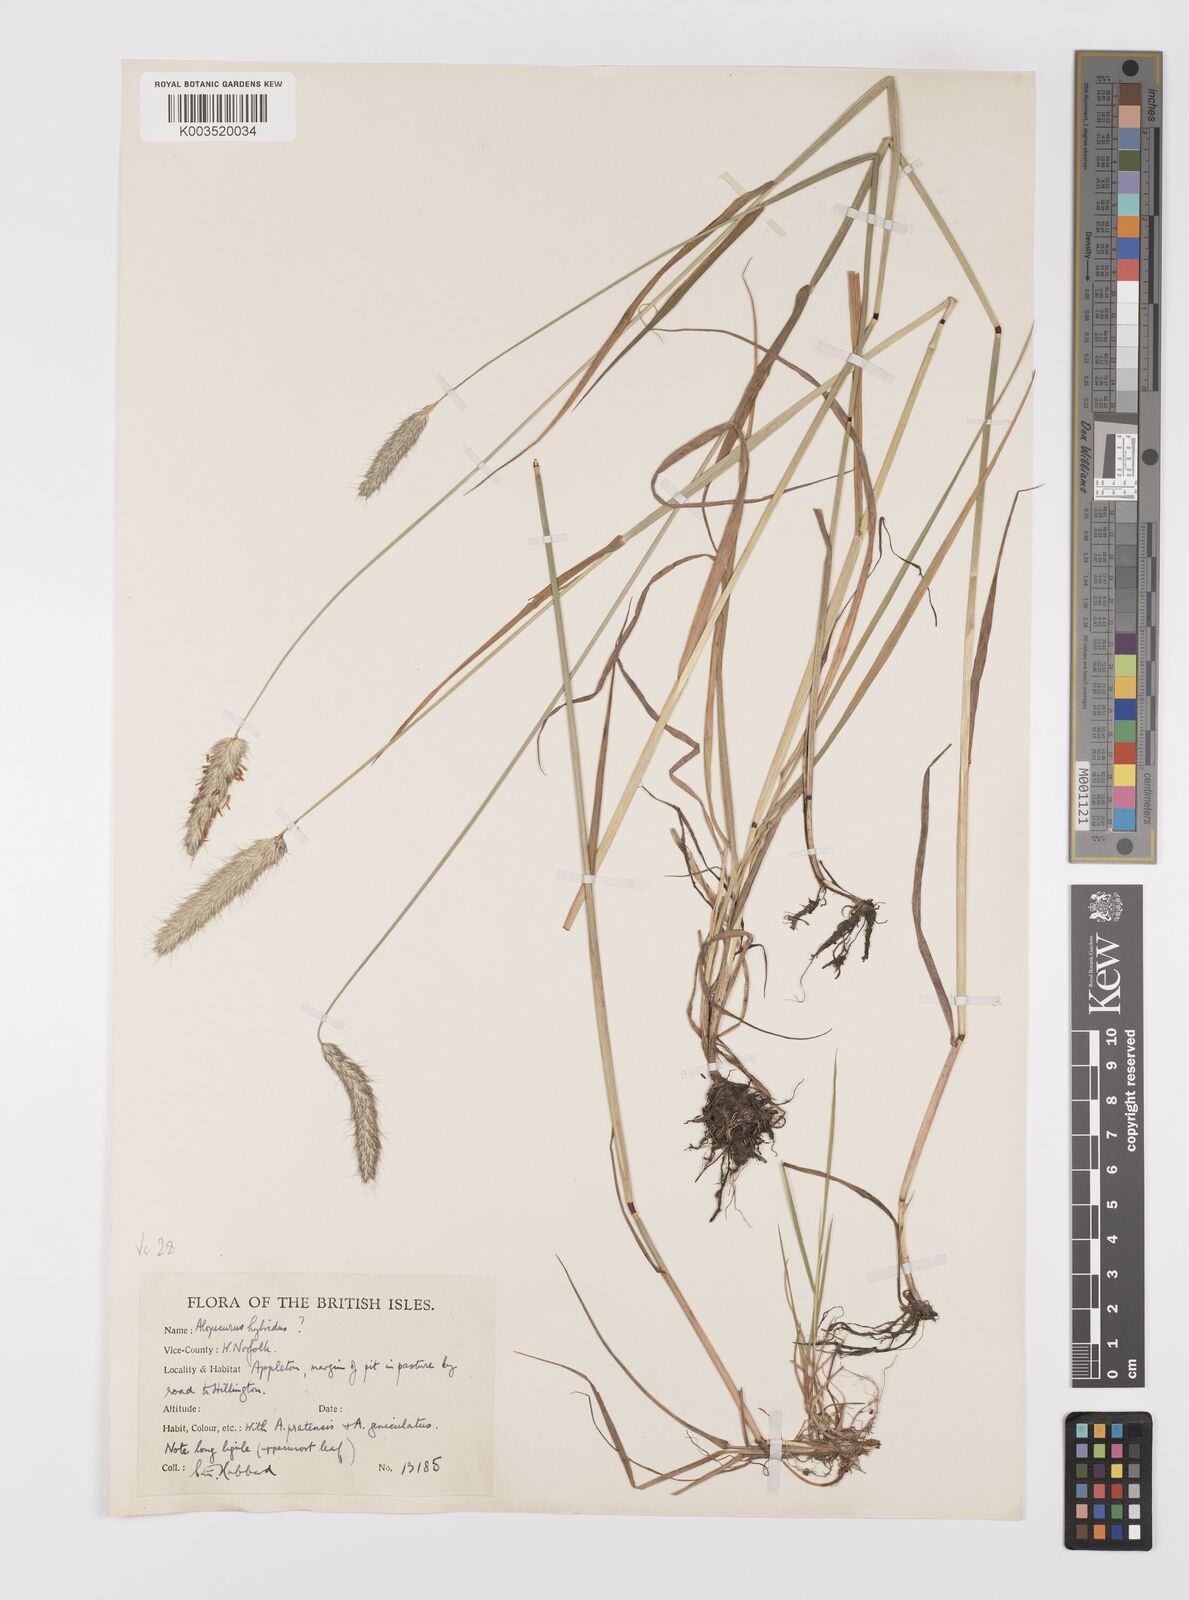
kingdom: Plantae
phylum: Tracheophyta
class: Liliopsida
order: Poales
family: Poaceae
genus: Alopecurus
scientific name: Alopecurus brachystylus
